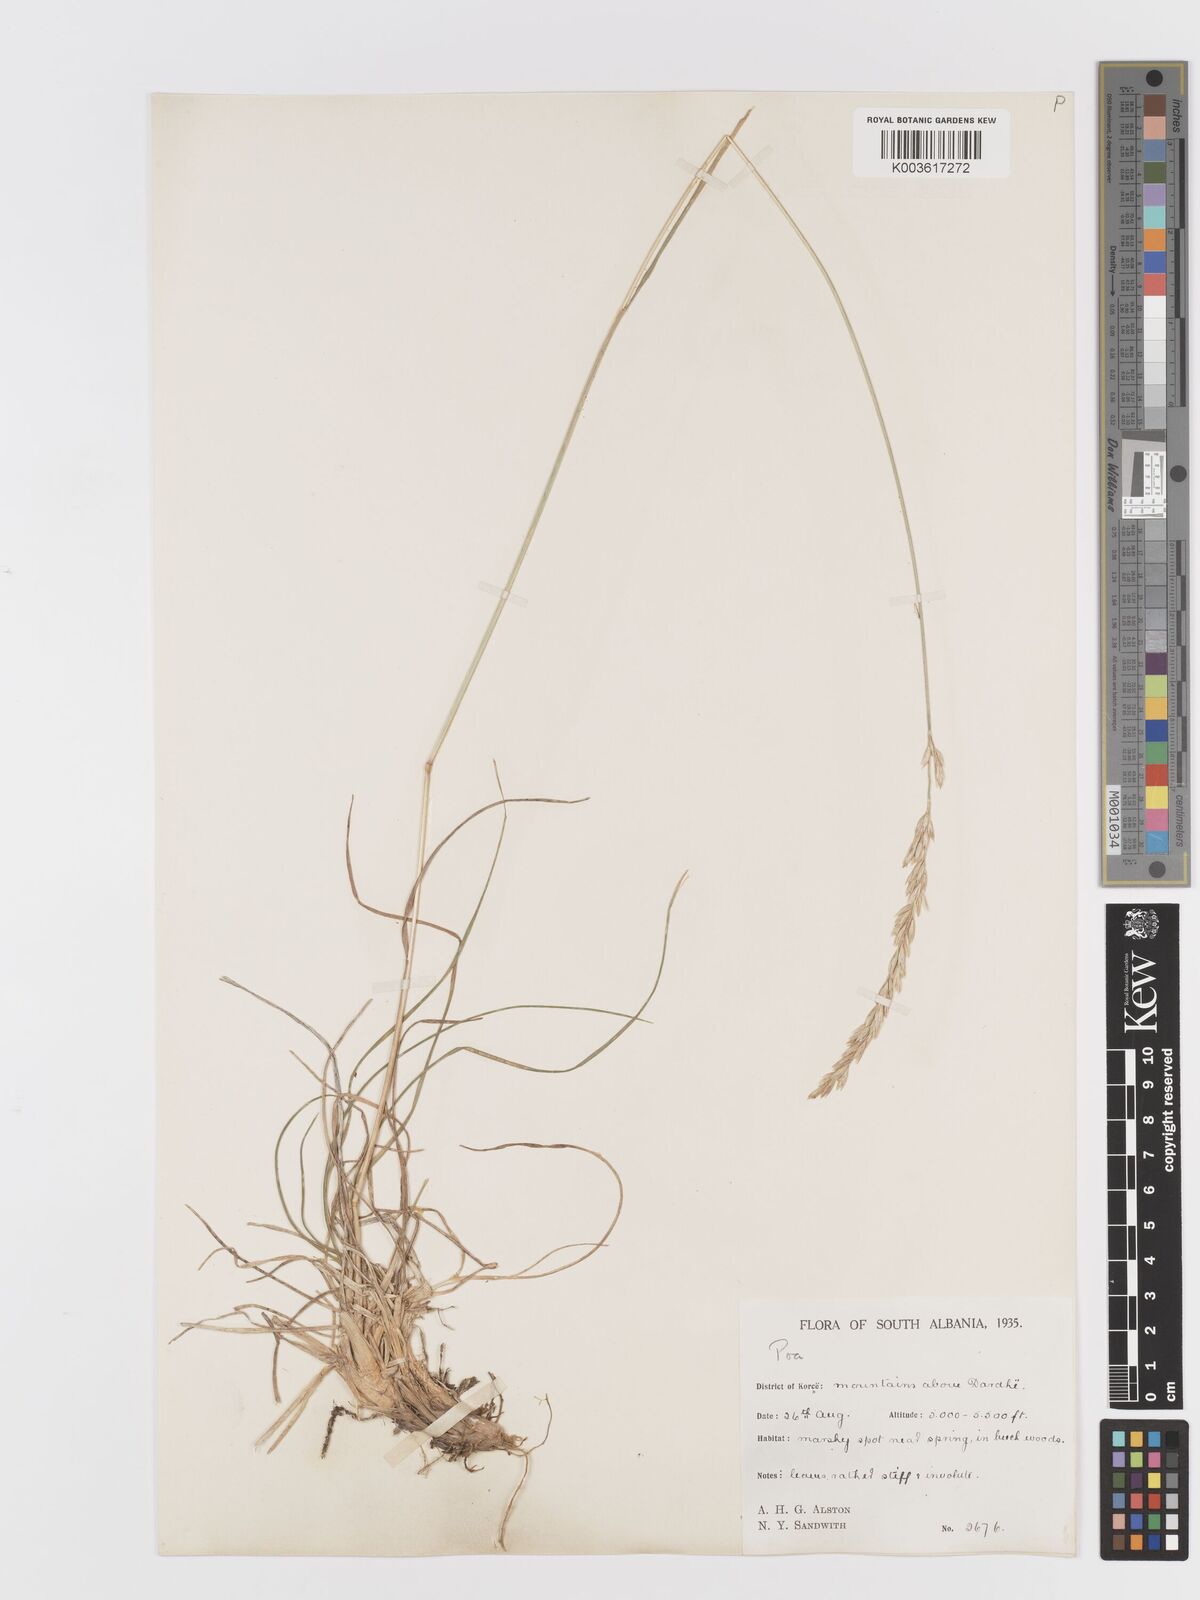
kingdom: Plantae
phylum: Tracheophyta
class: Liliopsida
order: Poales
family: Poaceae
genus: Koeleria
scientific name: Koeleria macrantha
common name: Crested hair-grass
